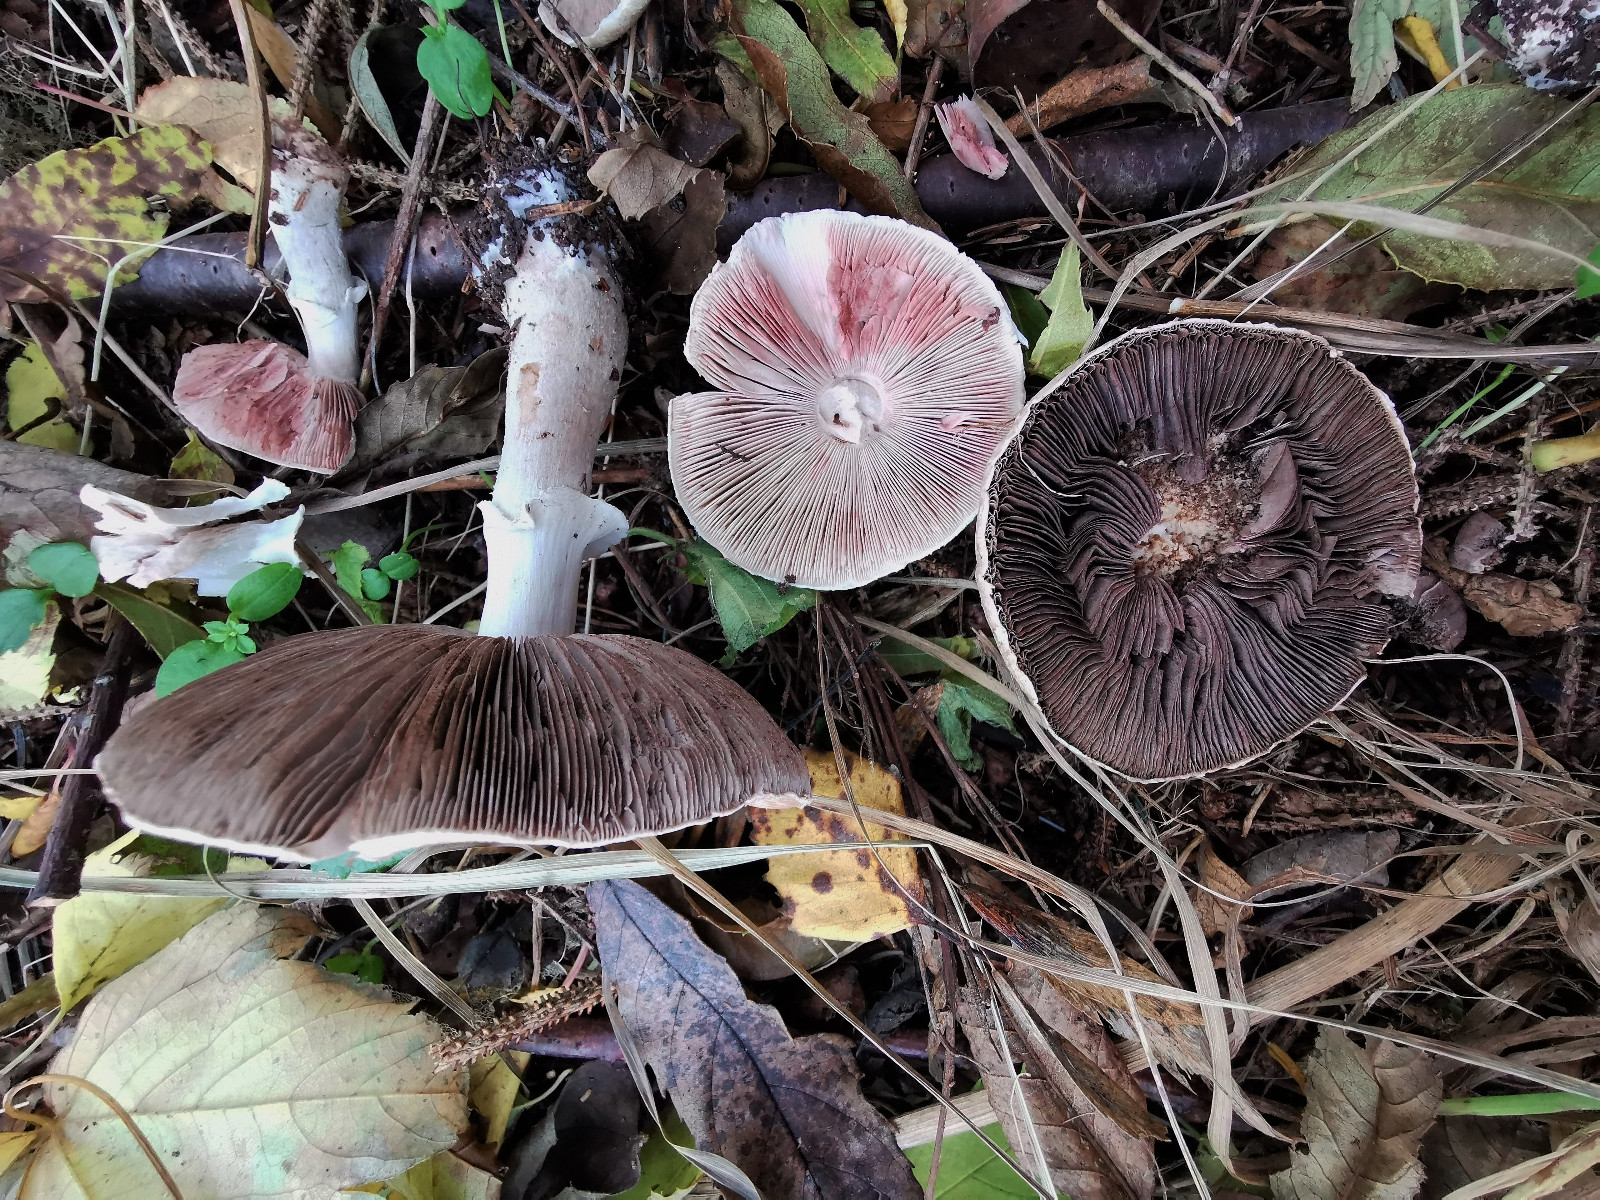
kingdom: Fungi
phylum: Basidiomycota
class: Agaricomycetes
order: Agaricales
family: Agaricaceae
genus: Agaricus
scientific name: Agaricus
